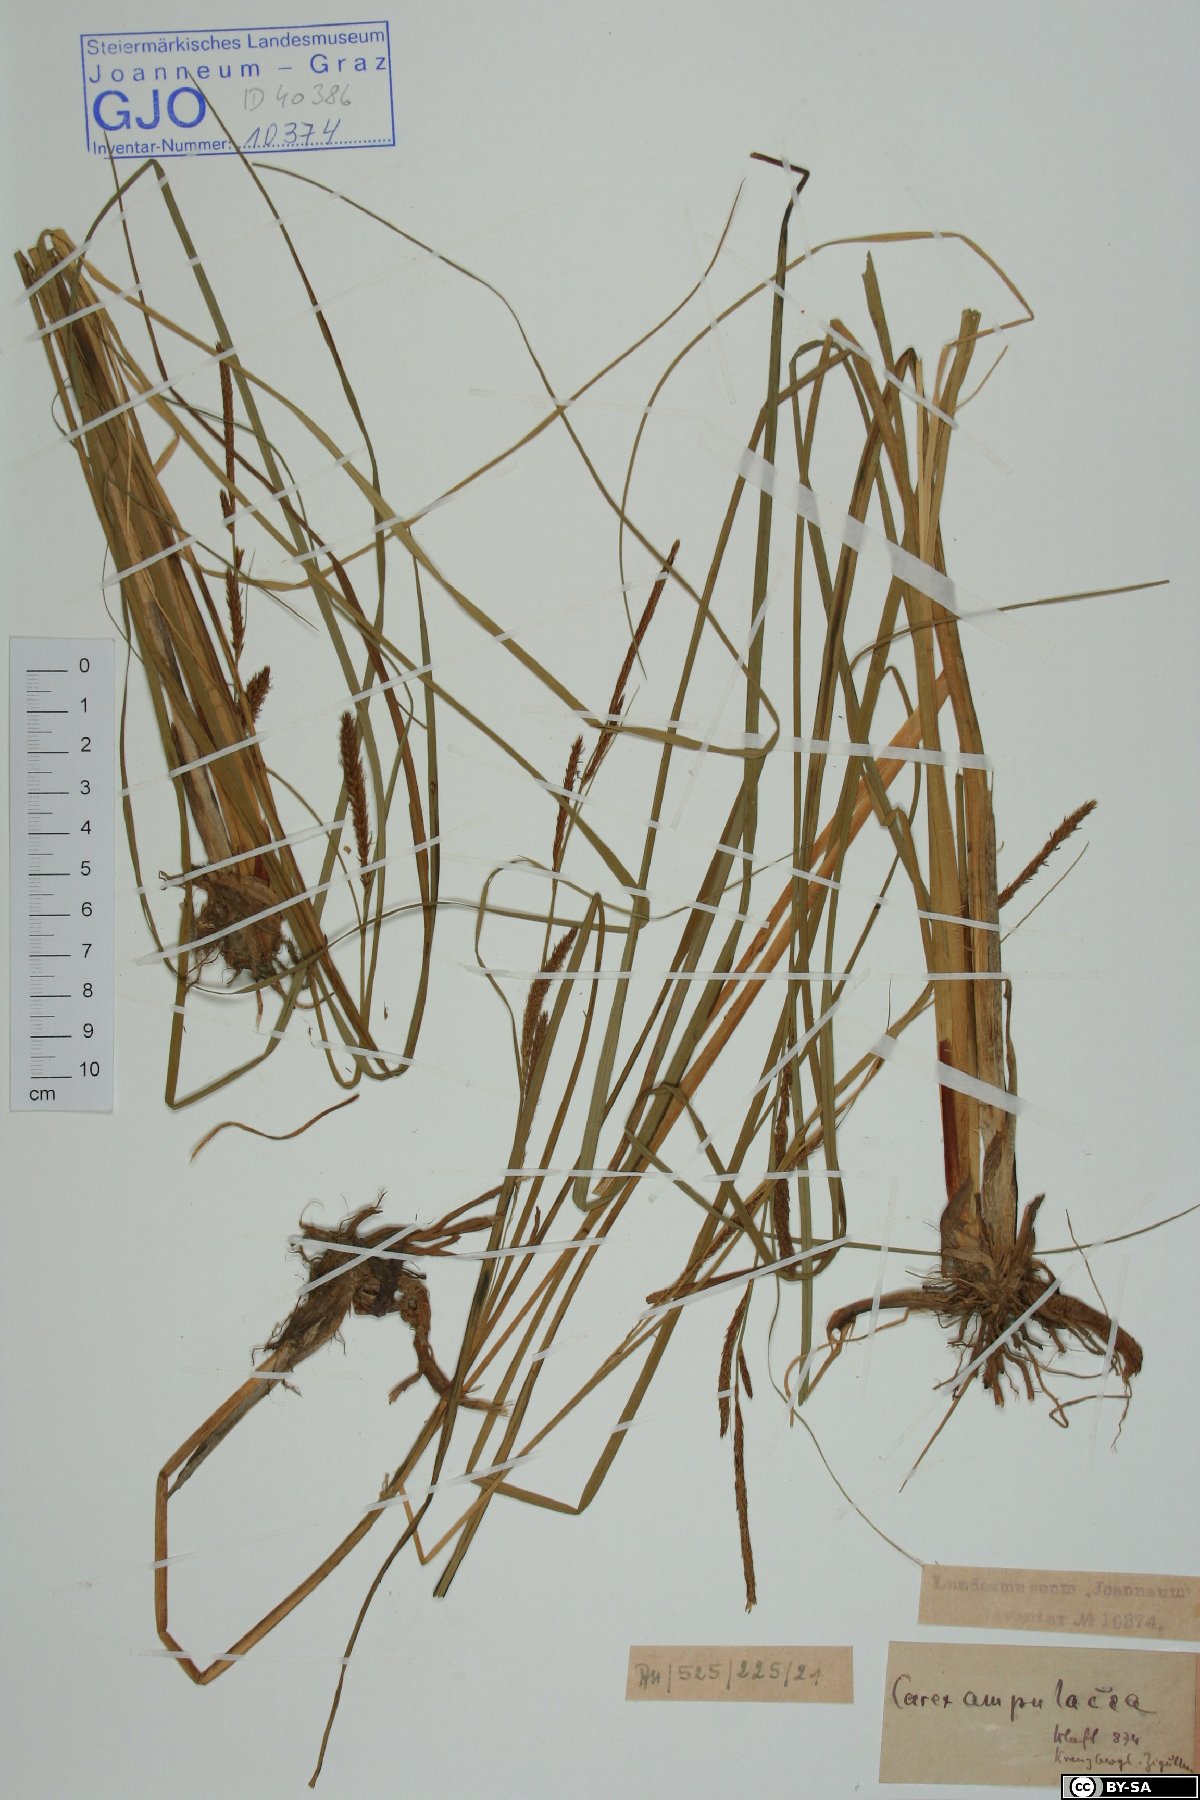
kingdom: Plantae
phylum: Tracheophyta
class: Liliopsida
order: Poales
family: Cyperaceae
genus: Carex
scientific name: Carex rostrata
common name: Bottle sedge
